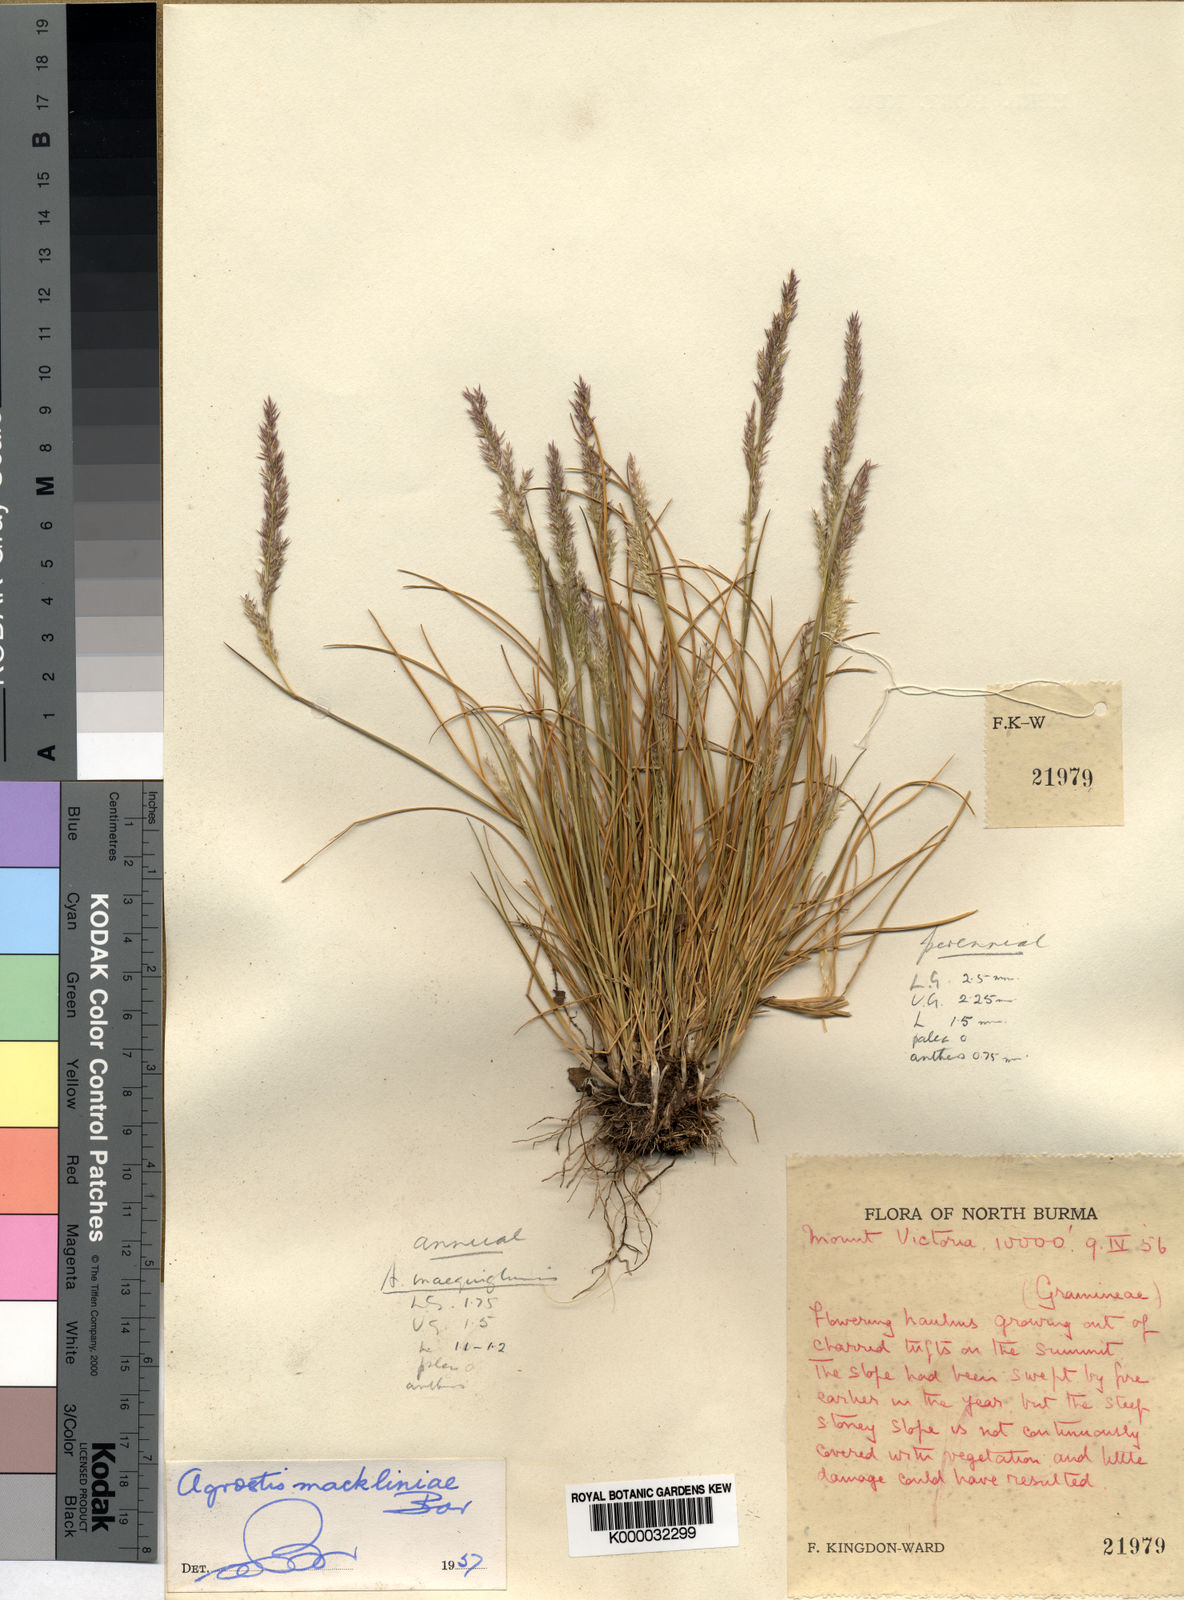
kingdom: Plantae
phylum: Tracheophyta
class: Liliopsida
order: Poales
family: Poaceae
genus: Agrostis
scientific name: Agrostis mackliniae
